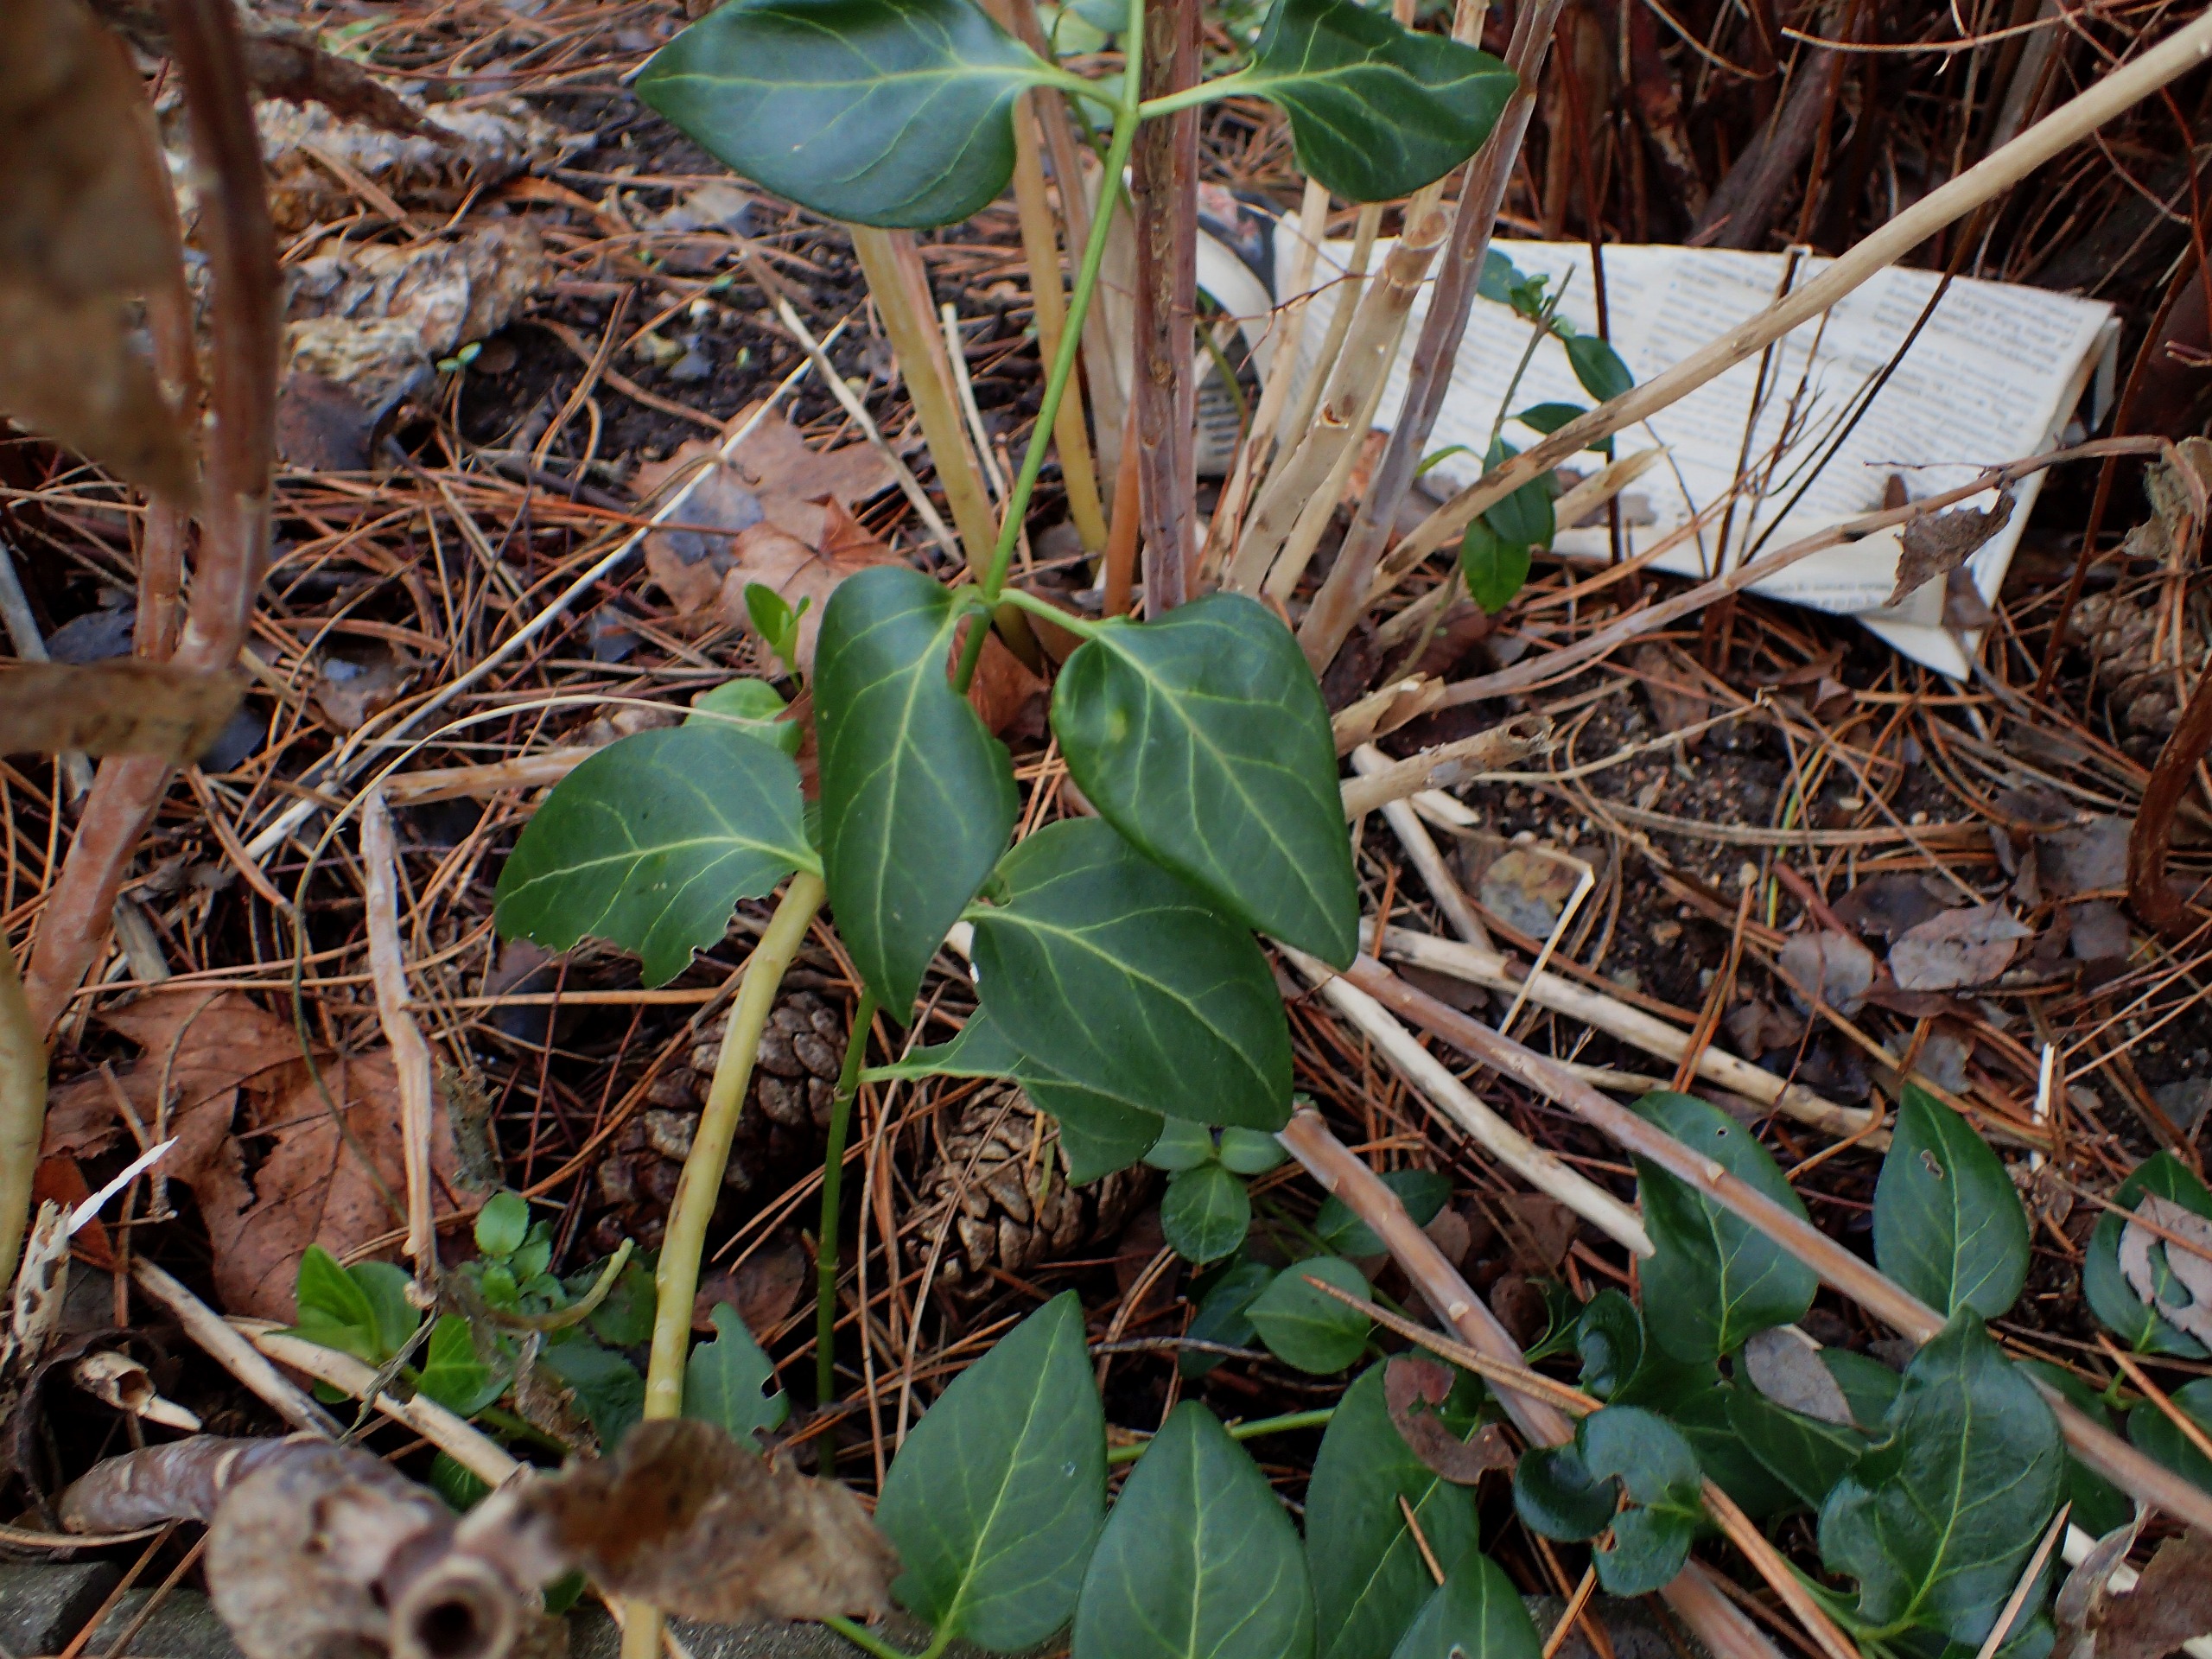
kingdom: Plantae
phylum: Tracheophyta
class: Magnoliopsida
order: Gentianales
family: Apocynaceae
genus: Vinca
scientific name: Vinca major
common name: Stor singrøn
